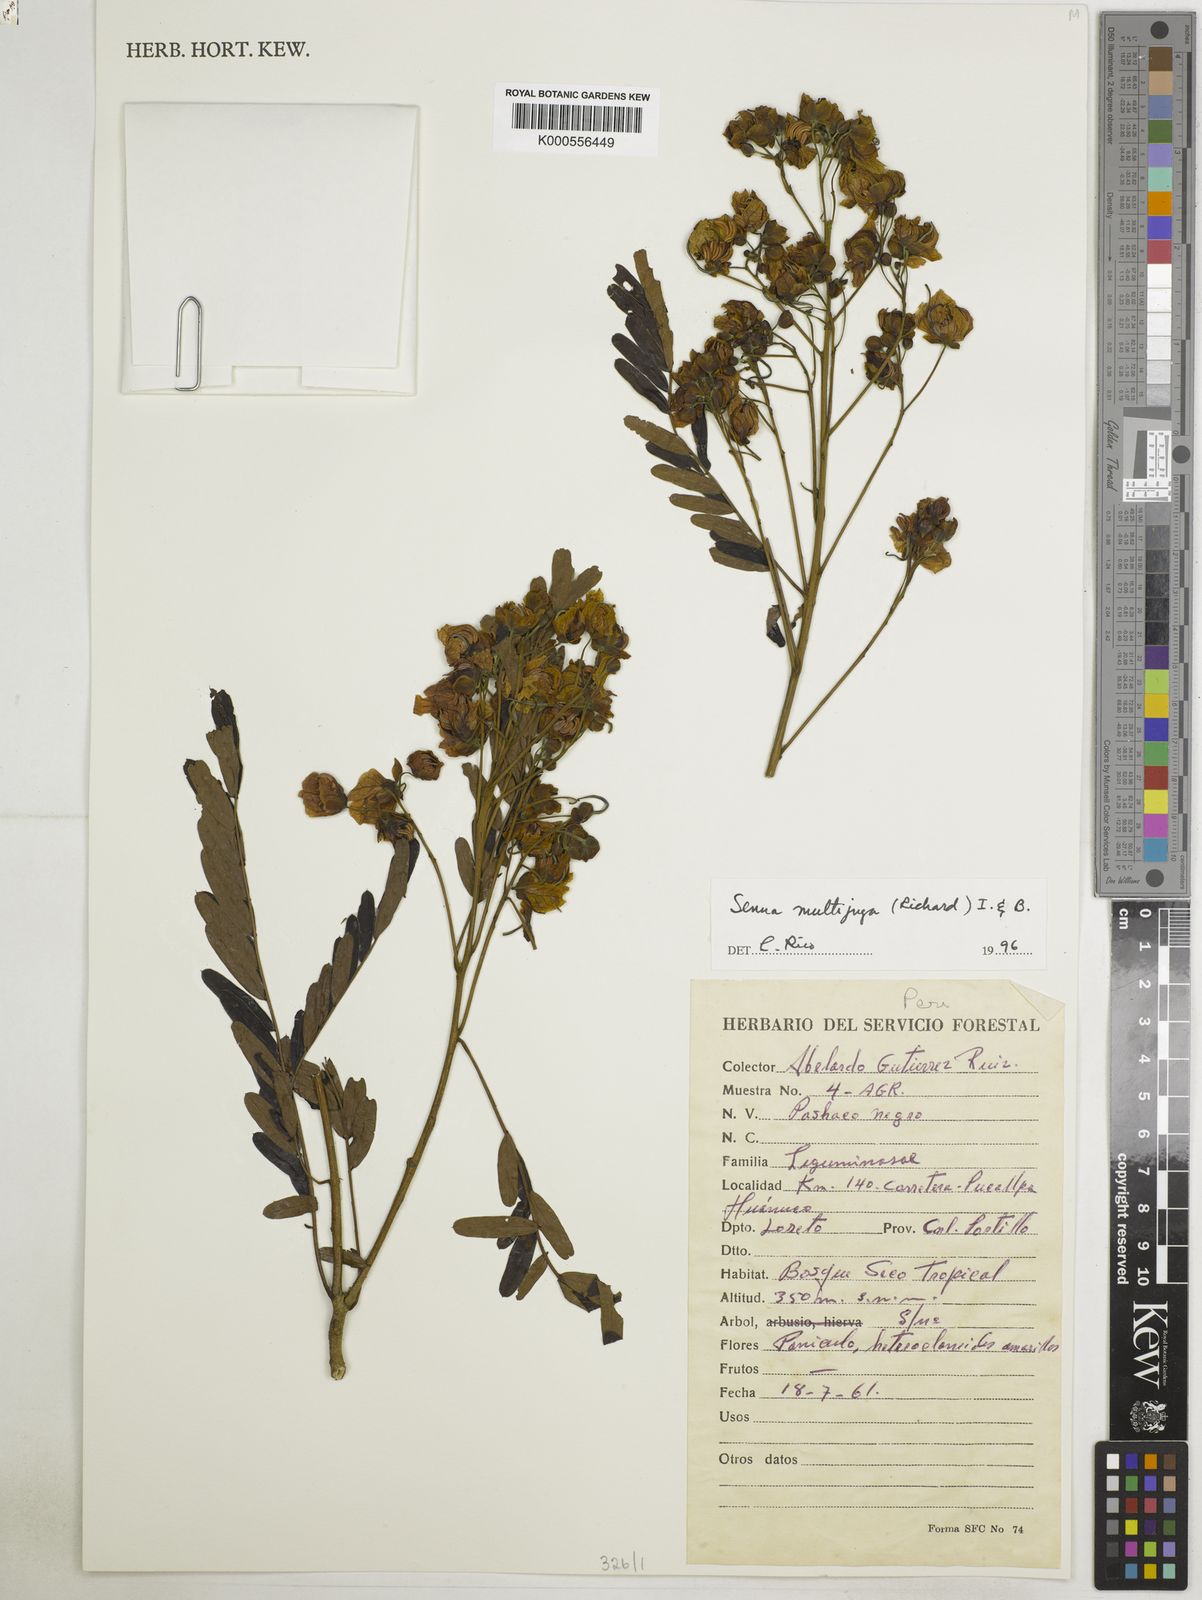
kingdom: Plantae
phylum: Tracheophyta
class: Magnoliopsida
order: Fabales
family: Fabaceae
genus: Senna
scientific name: Senna multijuga
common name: False sicklepod
